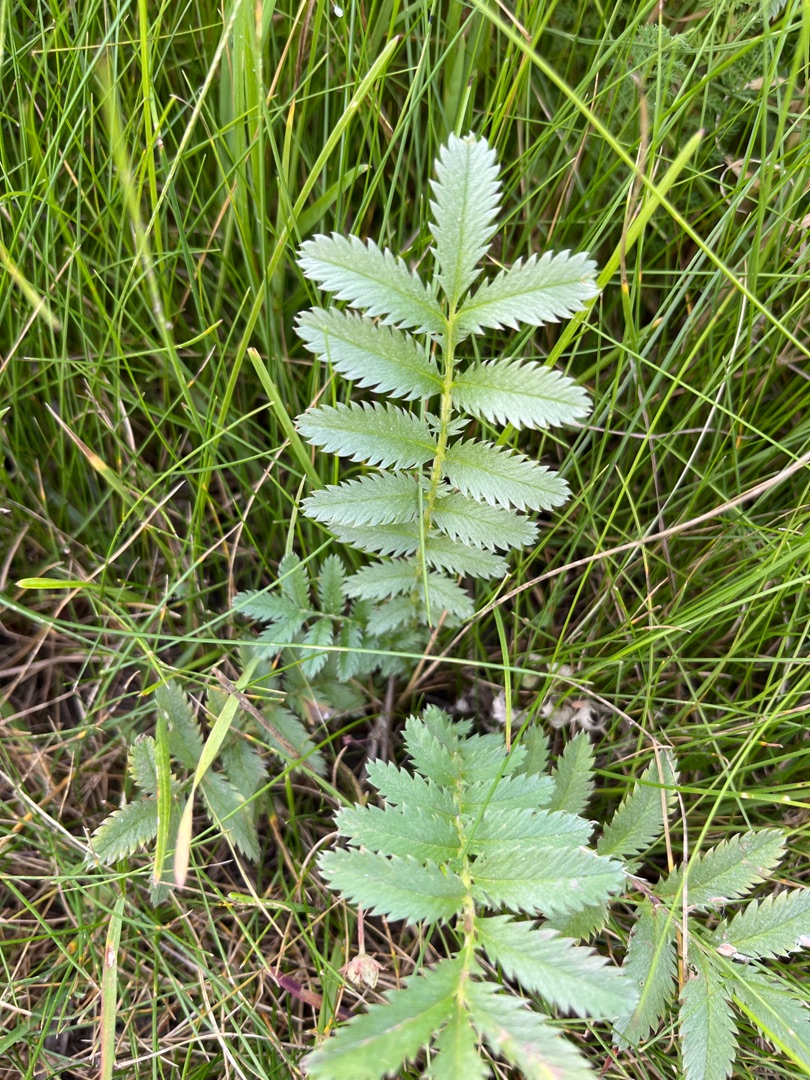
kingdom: Plantae
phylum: Tracheophyta
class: Magnoliopsida
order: Rosales
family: Rosaceae
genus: Argentina
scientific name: Argentina anserina
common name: Gåsepotentil
